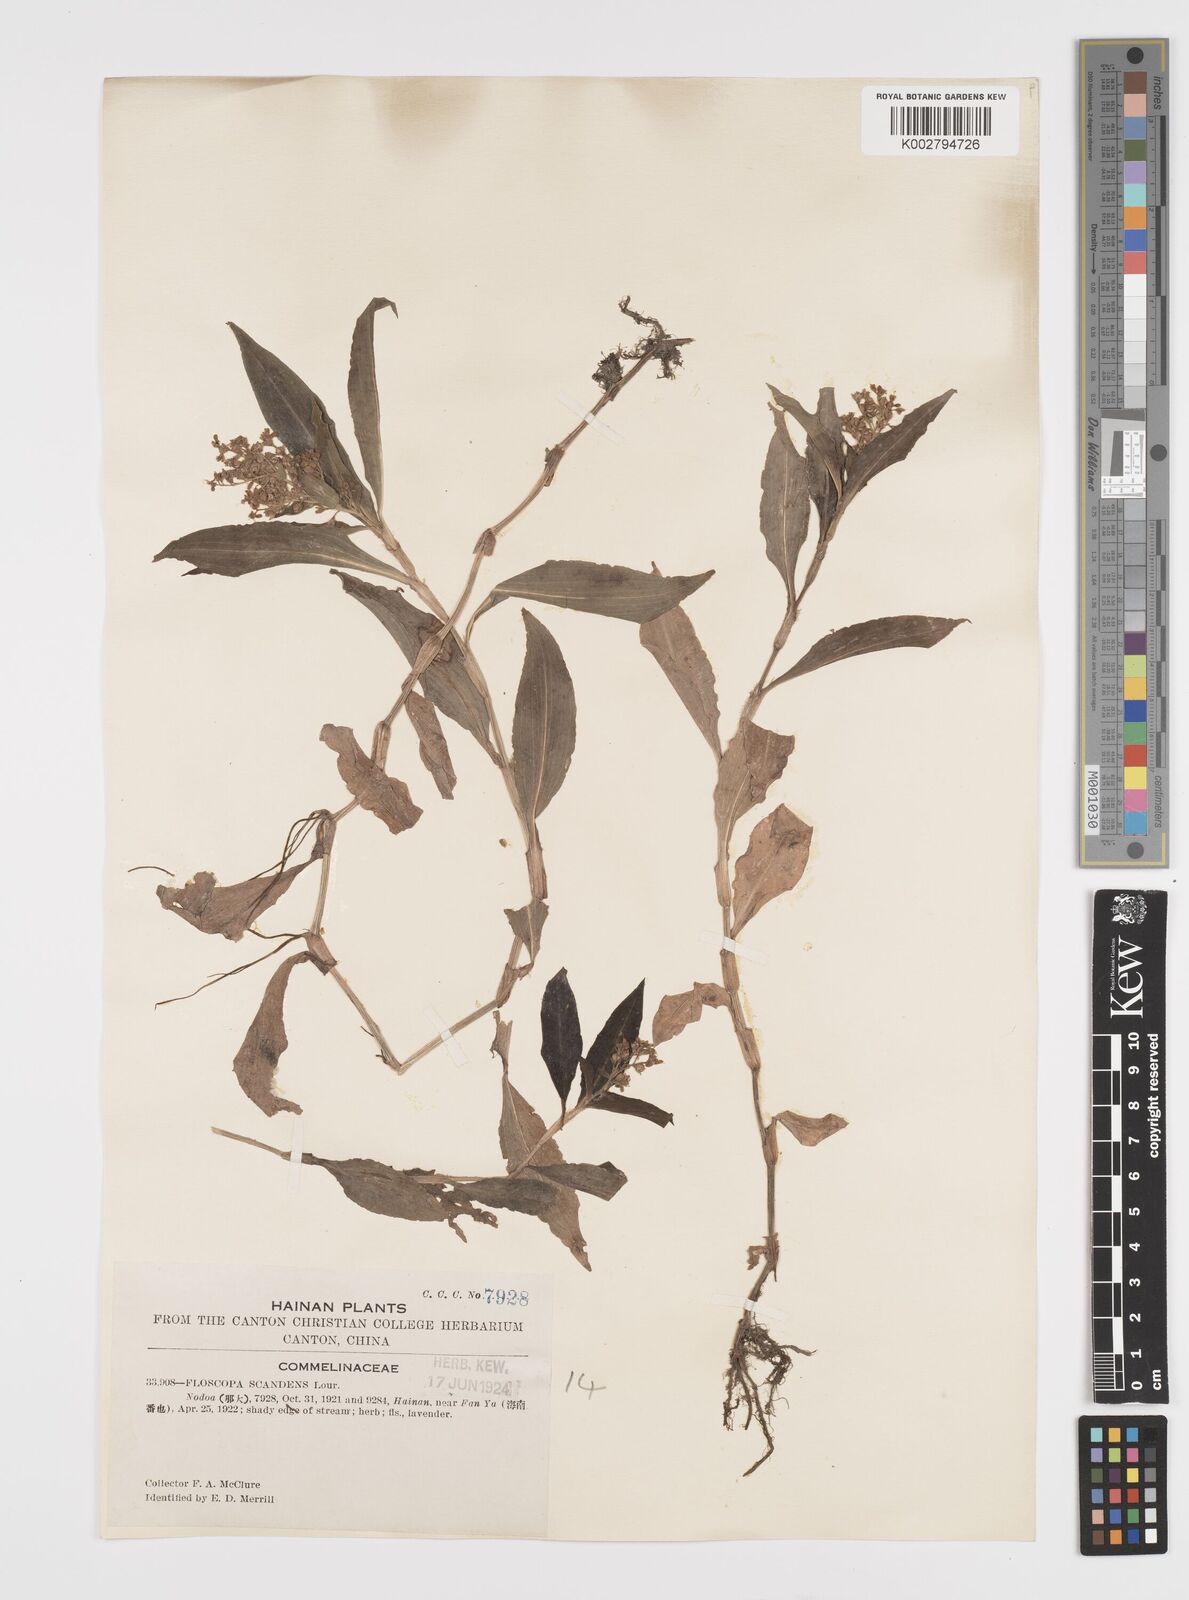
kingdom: Plantae
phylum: Tracheophyta
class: Liliopsida
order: Commelinales
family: Commelinaceae
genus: Floscopa
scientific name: Floscopa scandens
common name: Climbing flower cup
